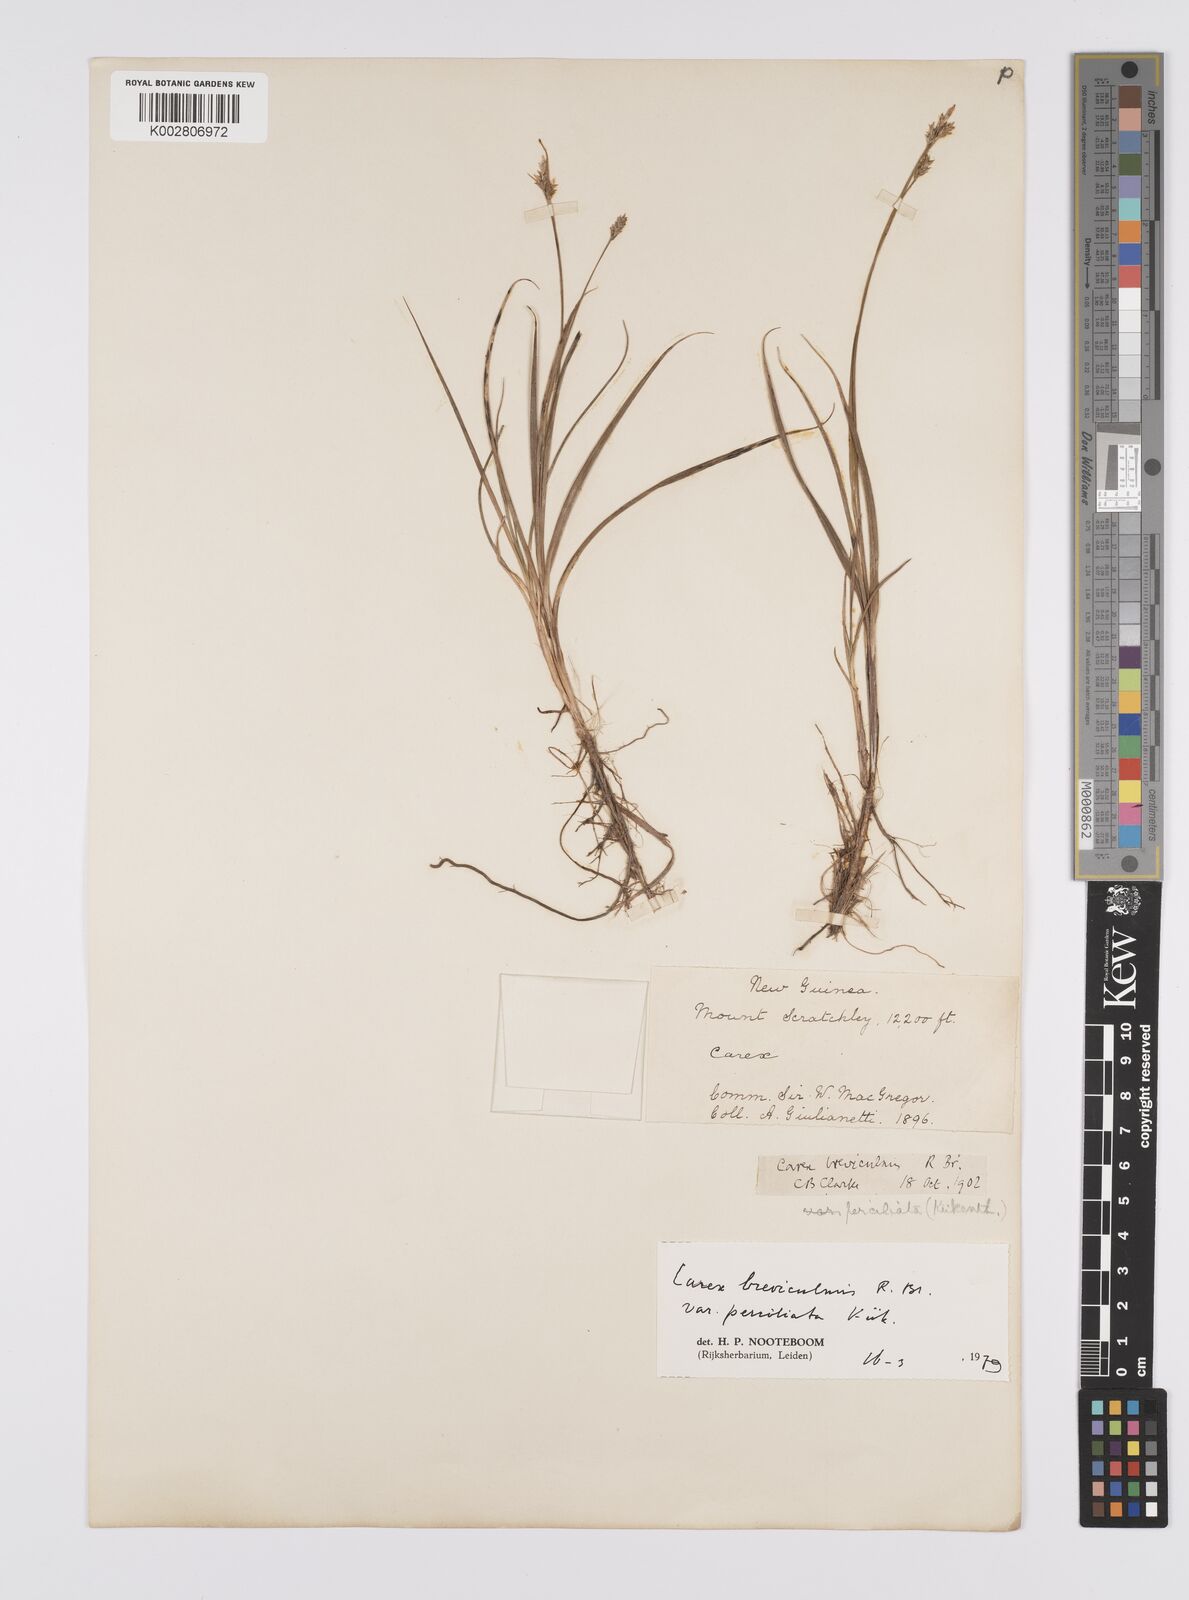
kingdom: Plantae
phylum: Tracheophyta
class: Liliopsida
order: Poales
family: Cyperaceae
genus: Carex
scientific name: Carex breviculmis
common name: Asian shortstem sedge
